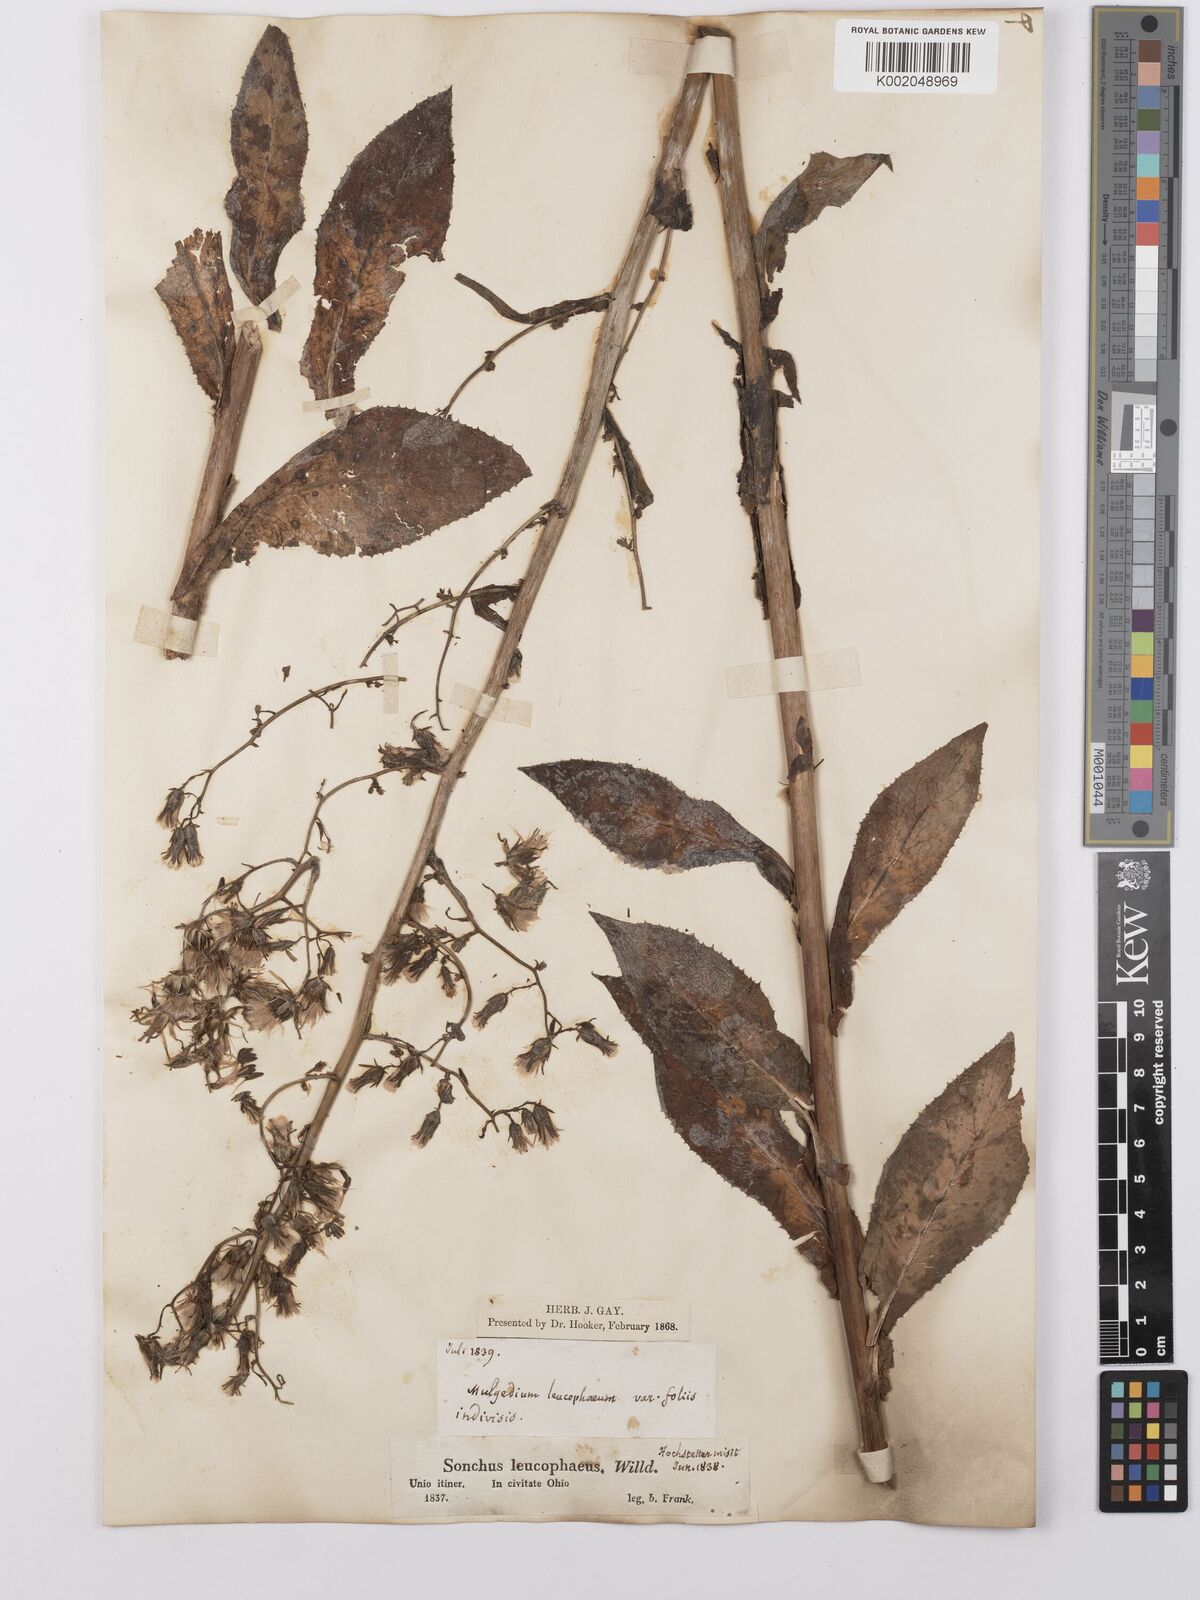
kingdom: Plantae
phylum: Tracheophyta
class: Magnoliopsida
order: Asterales
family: Asteraceae
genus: Lactuca
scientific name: Lactuca
